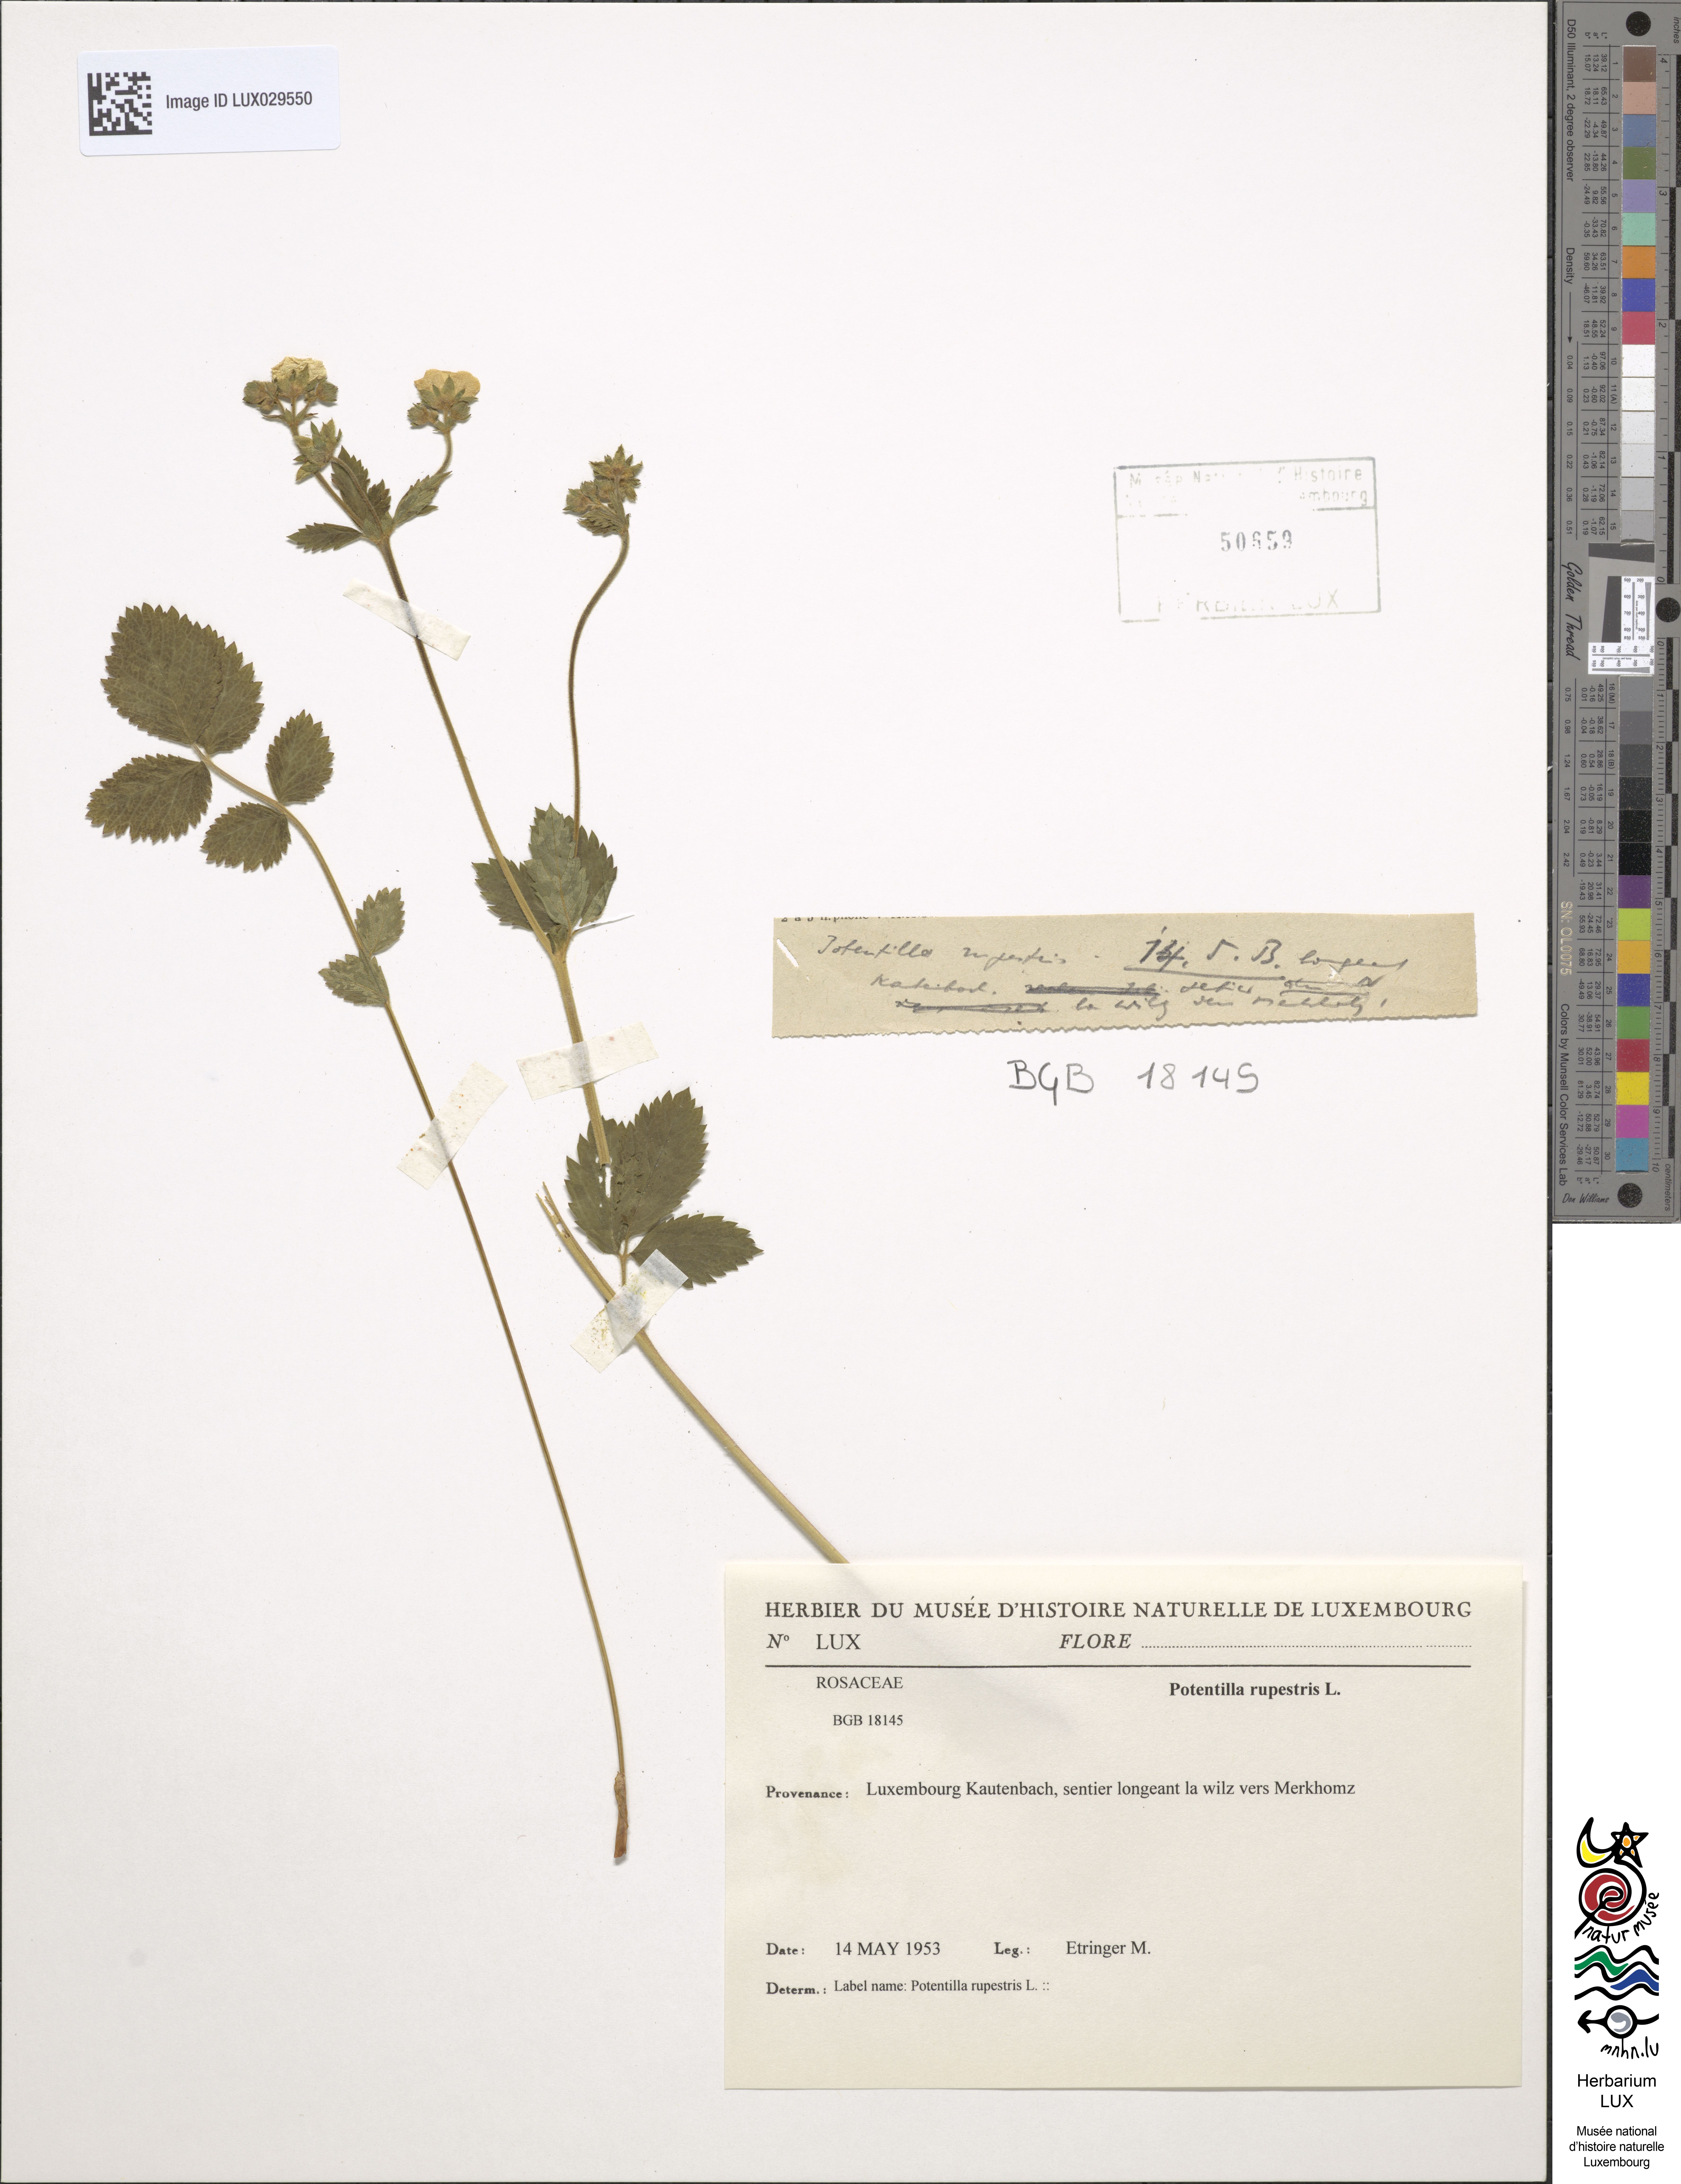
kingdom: Plantae
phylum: Tracheophyta
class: Magnoliopsida
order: Rosales
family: Rosaceae
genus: Drymocallis
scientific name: Drymocallis rupestris
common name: Rock cinquefoil
